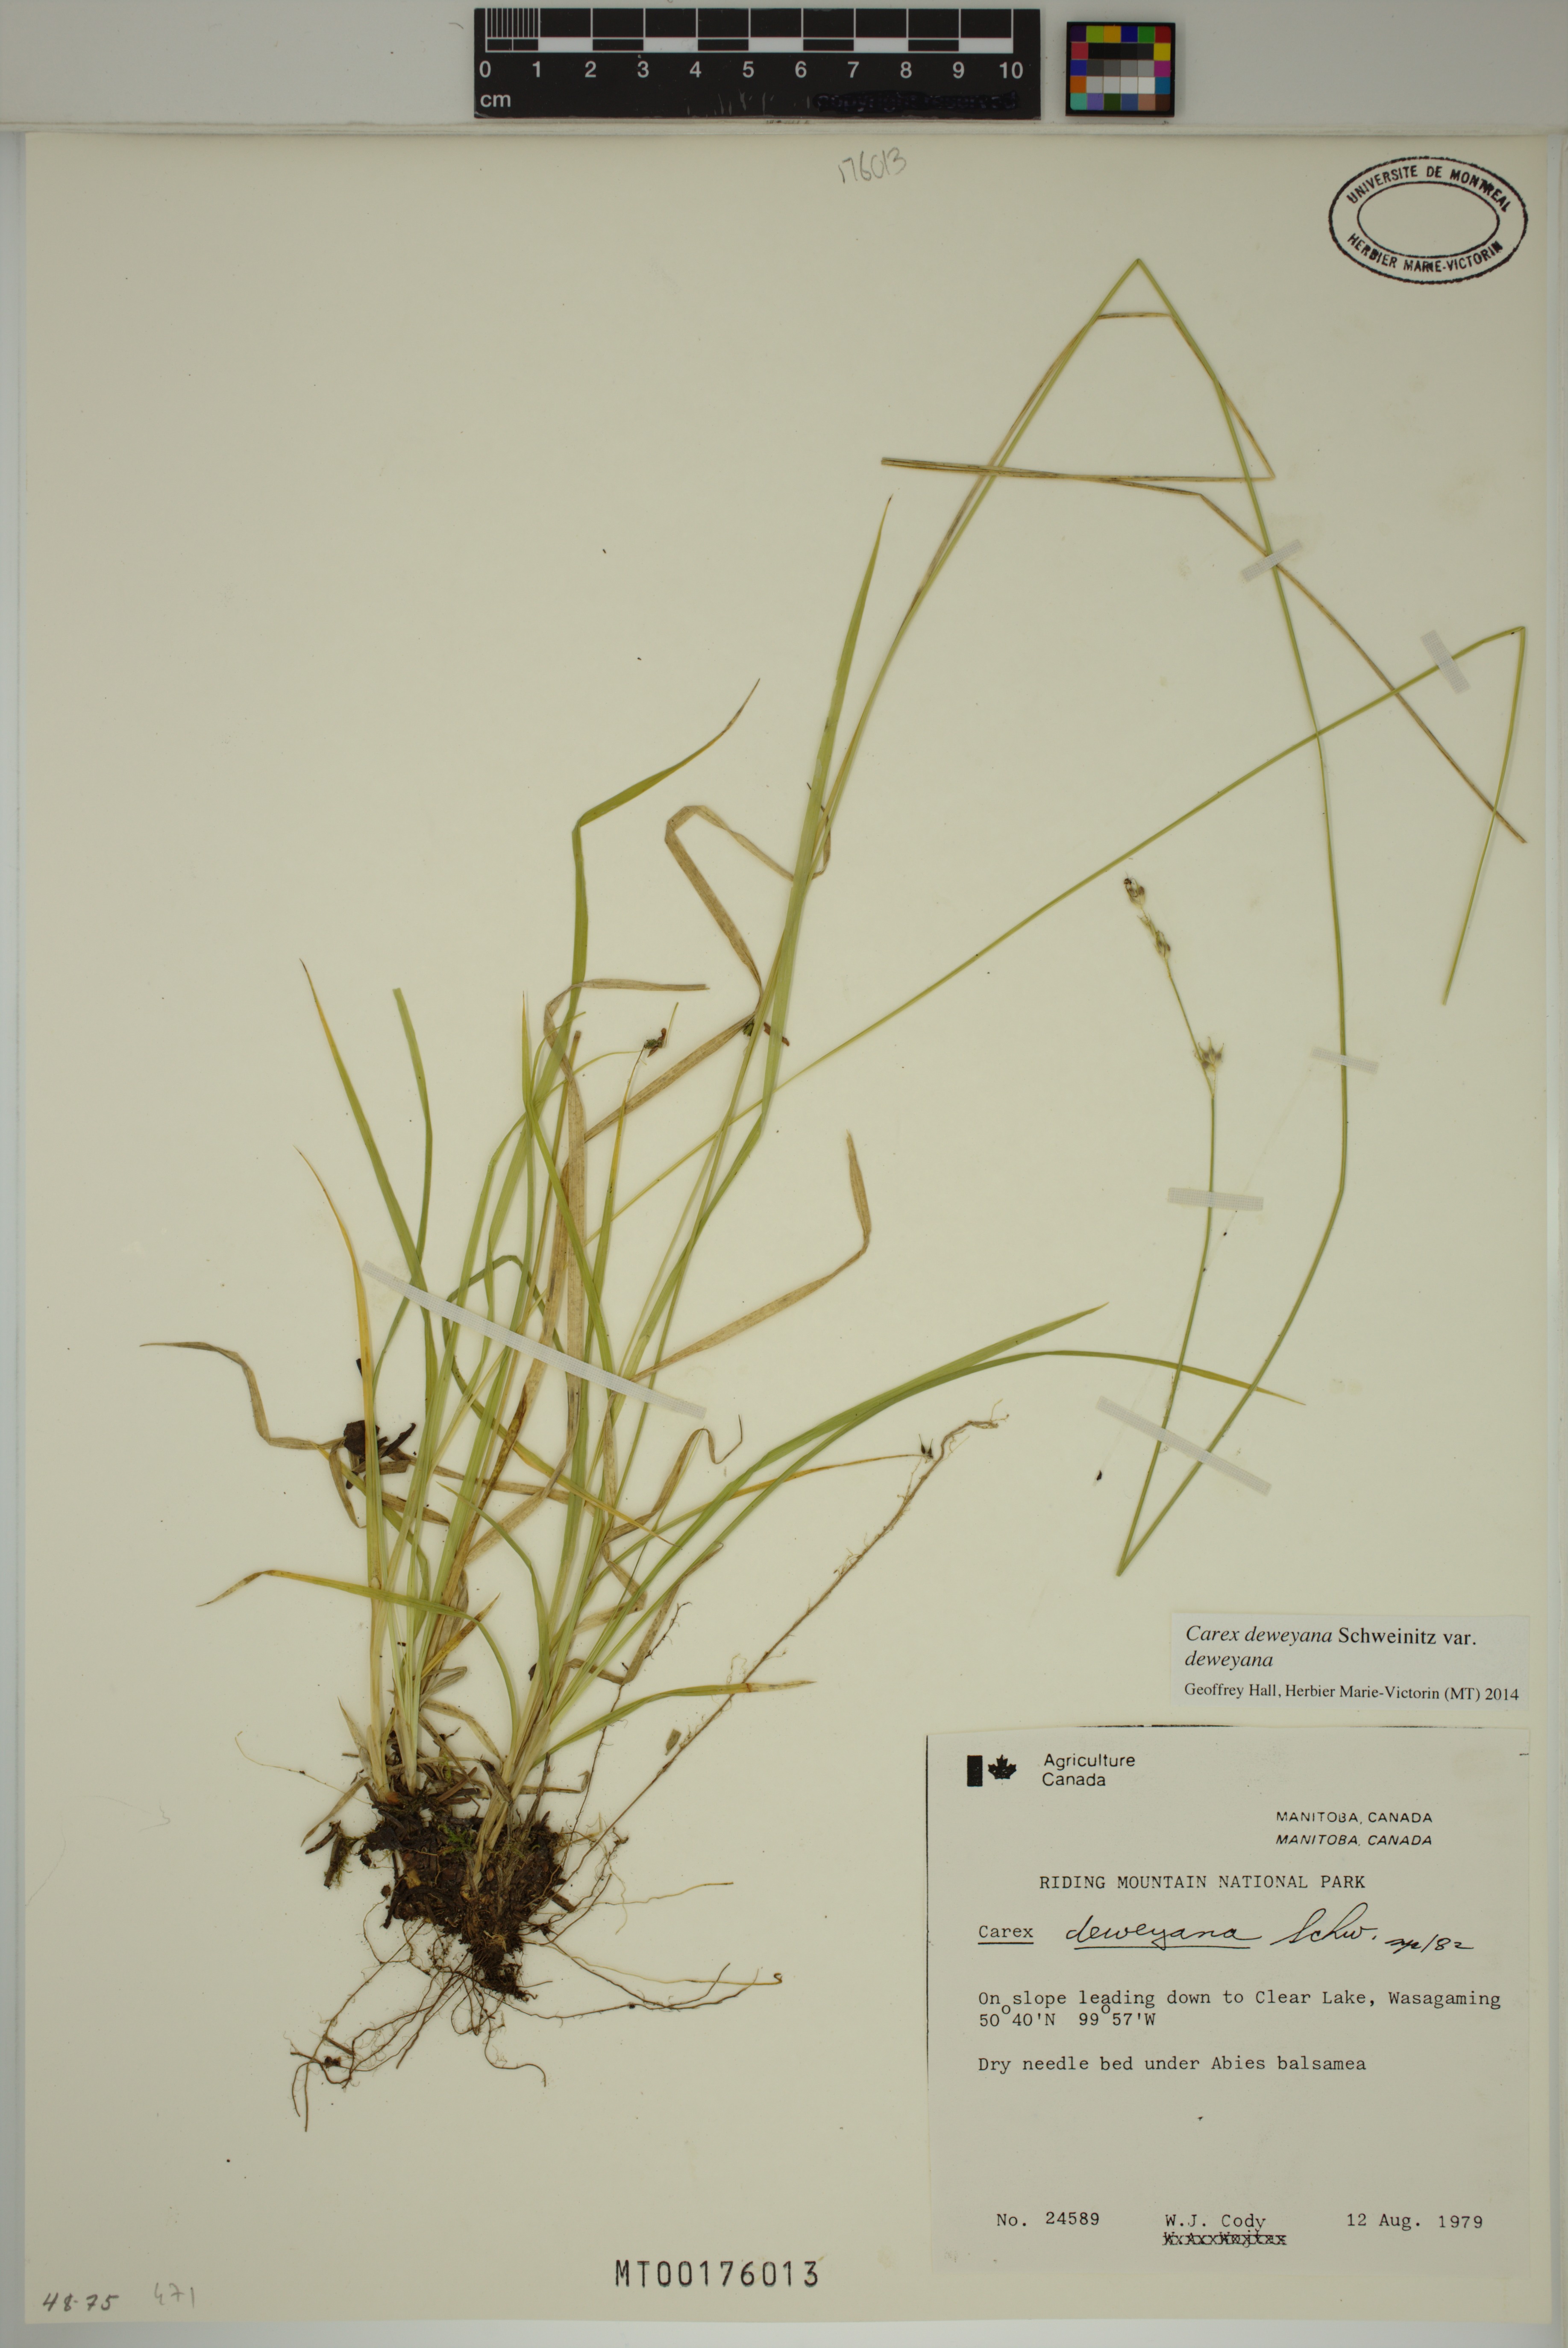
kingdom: Plantae
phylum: Tracheophyta
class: Liliopsida
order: Poales
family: Cyperaceae
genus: Carex
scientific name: Carex deweyana
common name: Dewey's sedge
